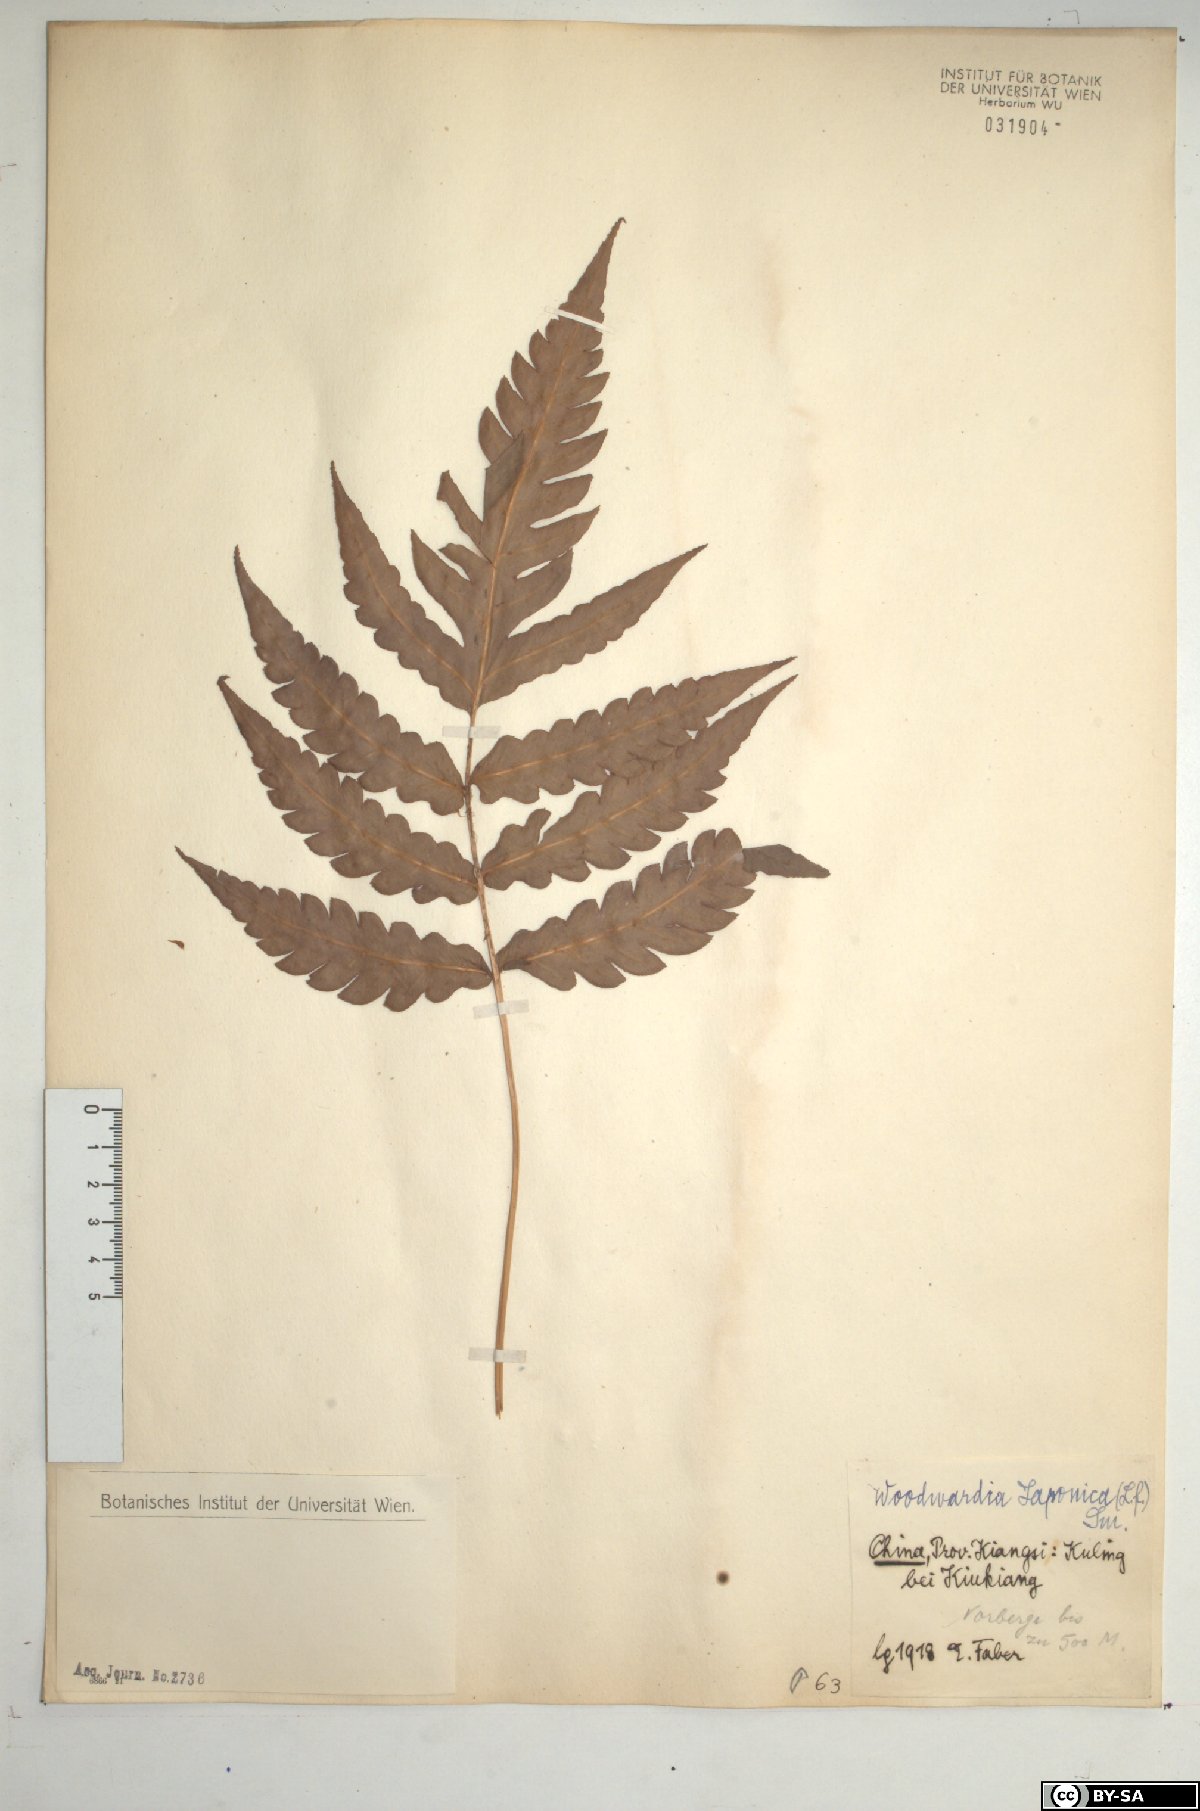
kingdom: Plantae
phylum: Tracheophyta
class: Polypodiopsida
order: Polypodiales
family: Blechnaceae
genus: Woodwardia
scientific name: Woodwardia japonica
